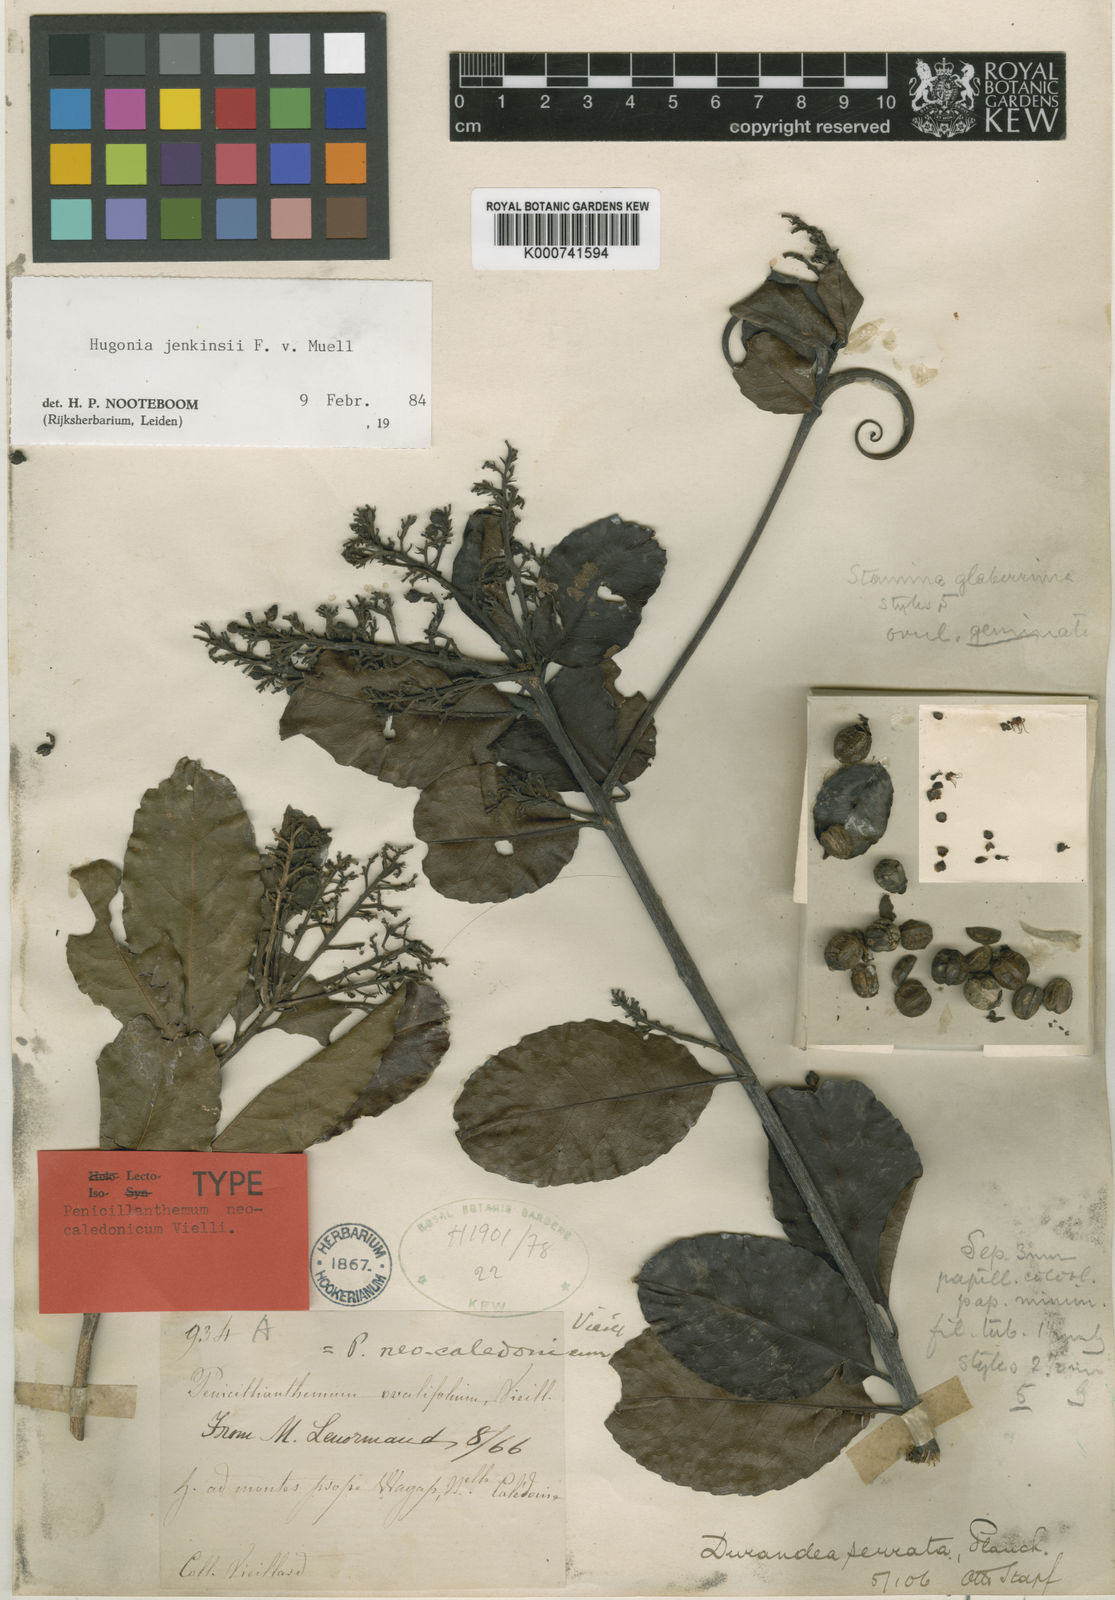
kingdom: Plantae
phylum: Tracheophyta
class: Magnoliopsida
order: Malpighiales
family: Linaceae
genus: Durandea
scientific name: Durandea jenkinsii
